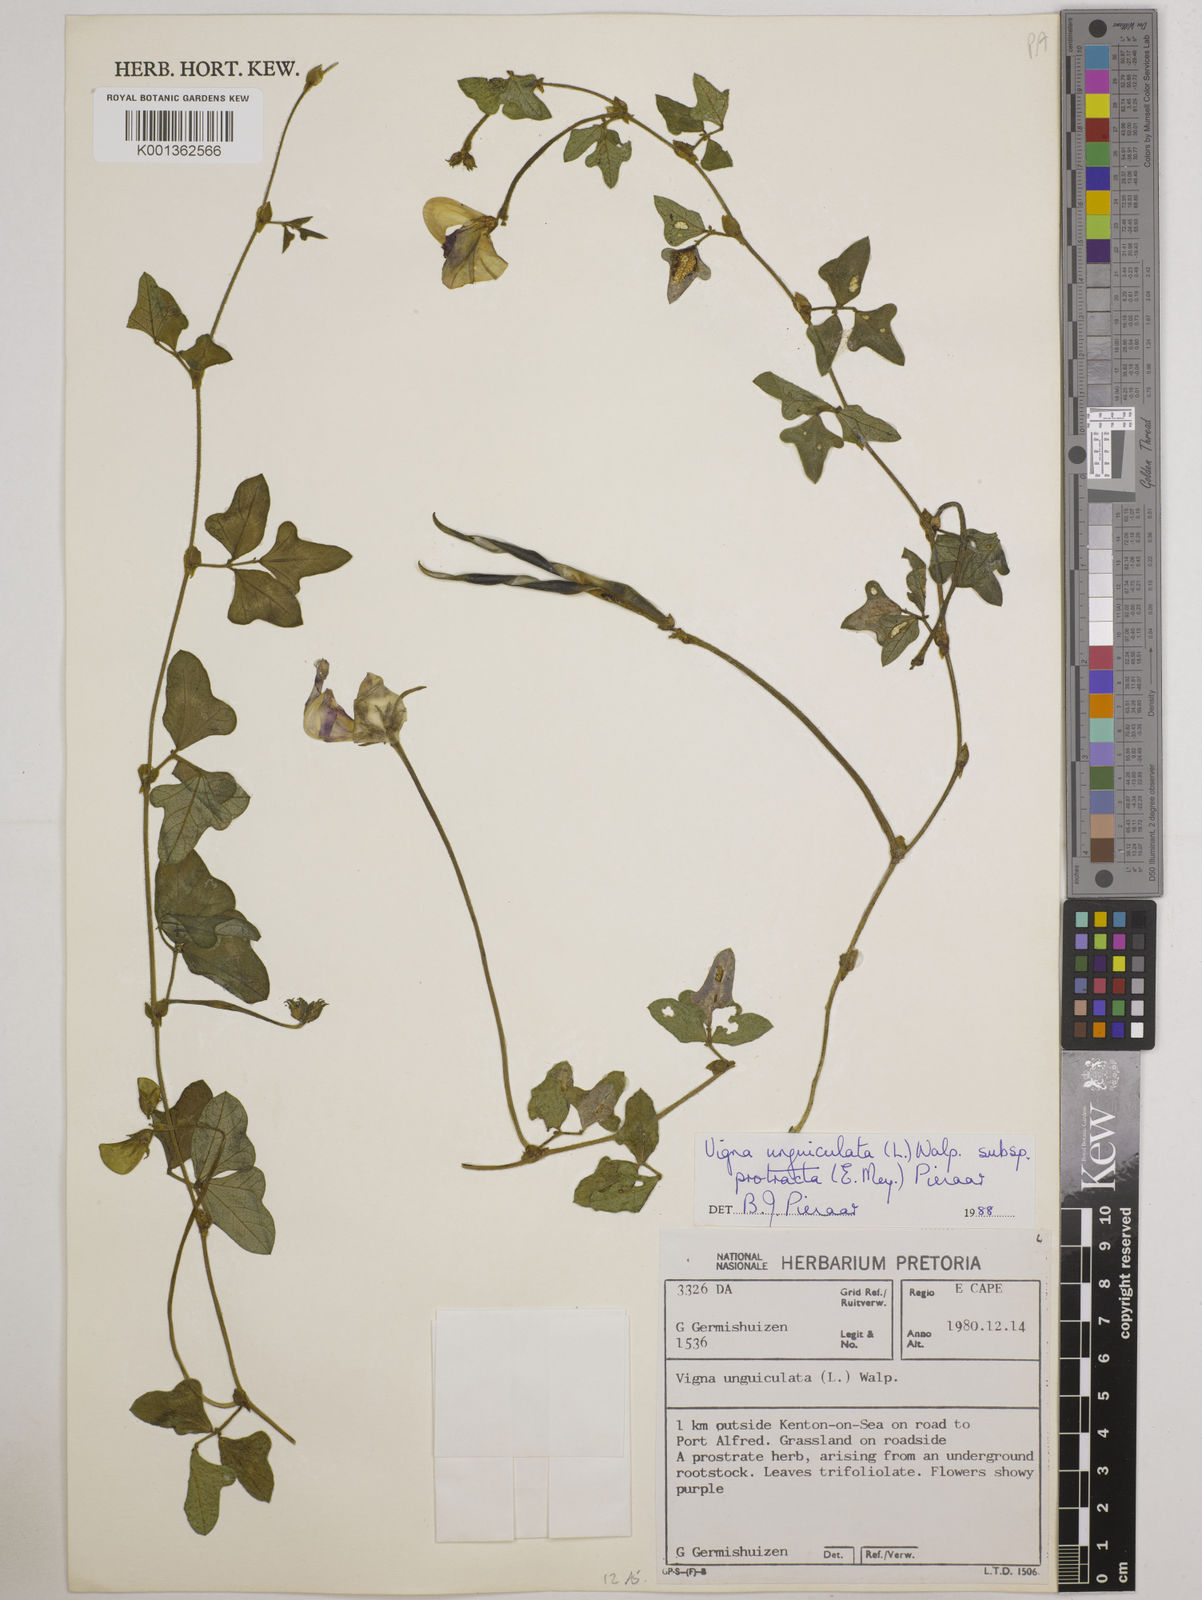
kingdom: Plantae
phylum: Tracheophyta
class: Magnoliopsida
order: Fabales
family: Fabaceae
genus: Vigna
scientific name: Vigna unguiculata
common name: Cowpea
